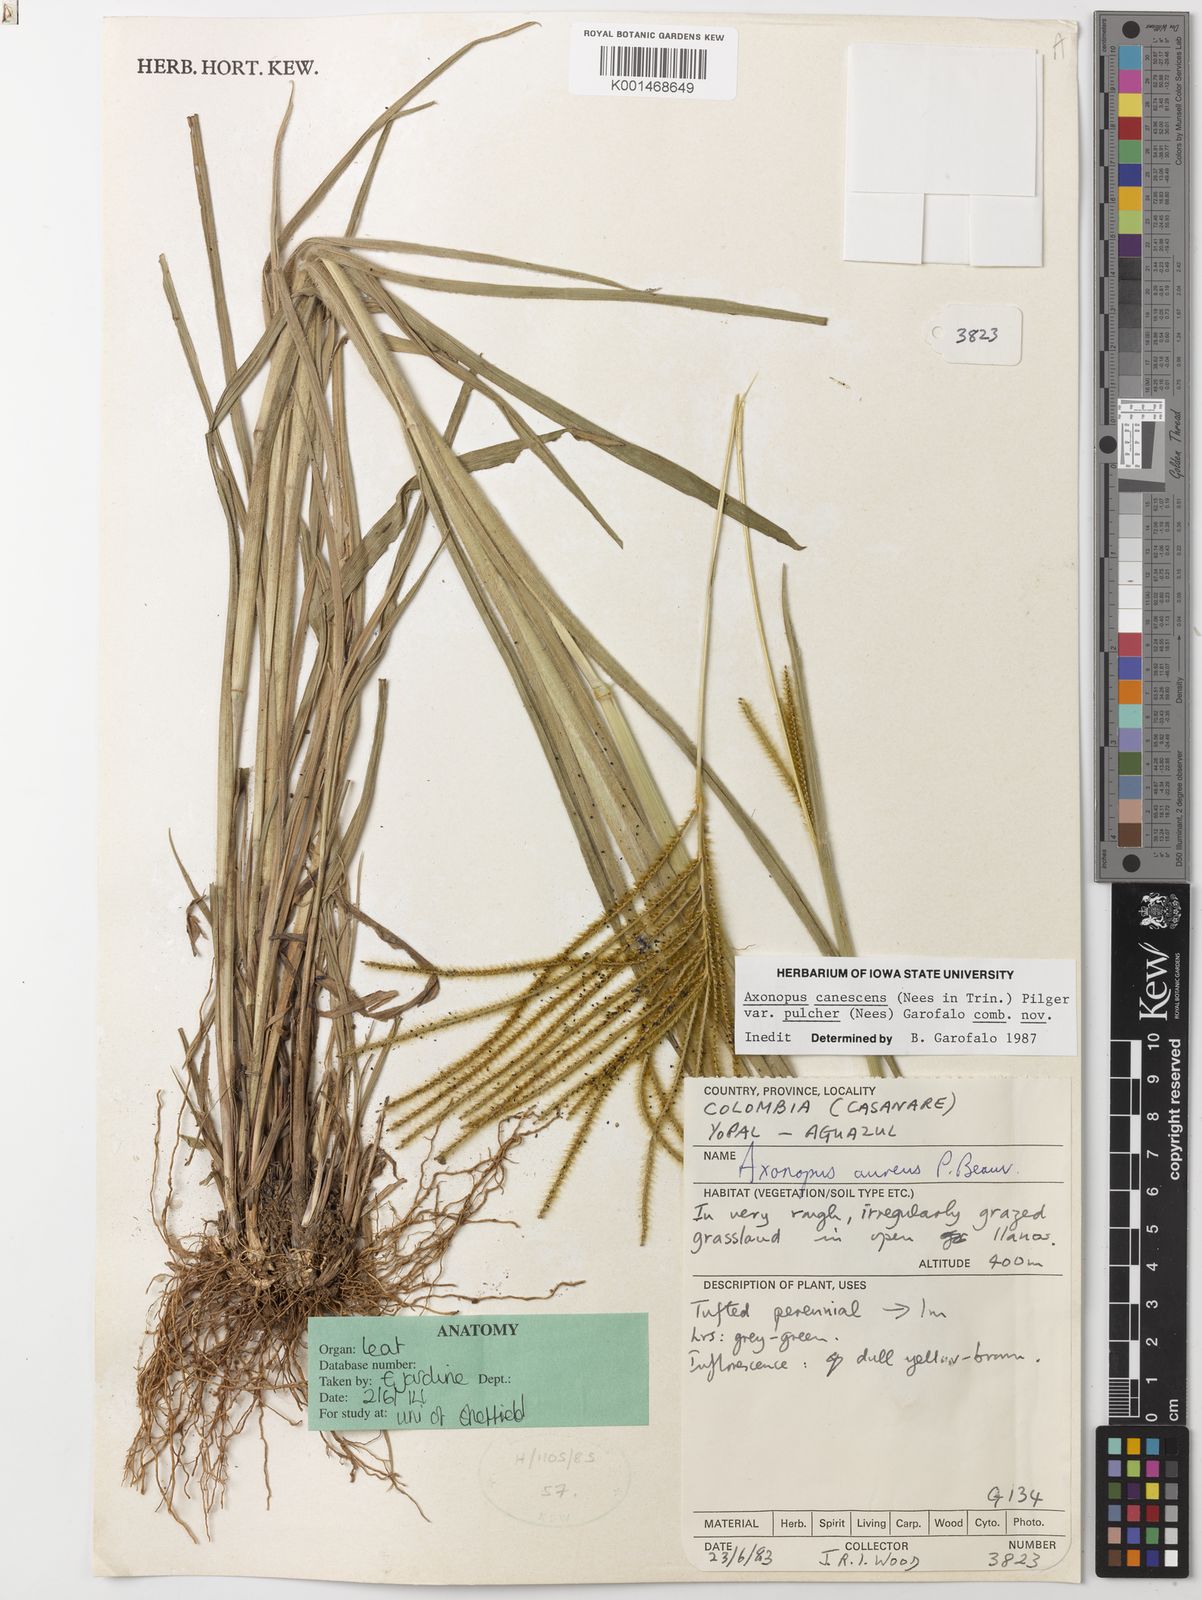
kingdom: Plantae
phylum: Tracheophyta
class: Liliopsida
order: Poales
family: Poaceae
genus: Axonopus
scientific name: Axonopus aureus
